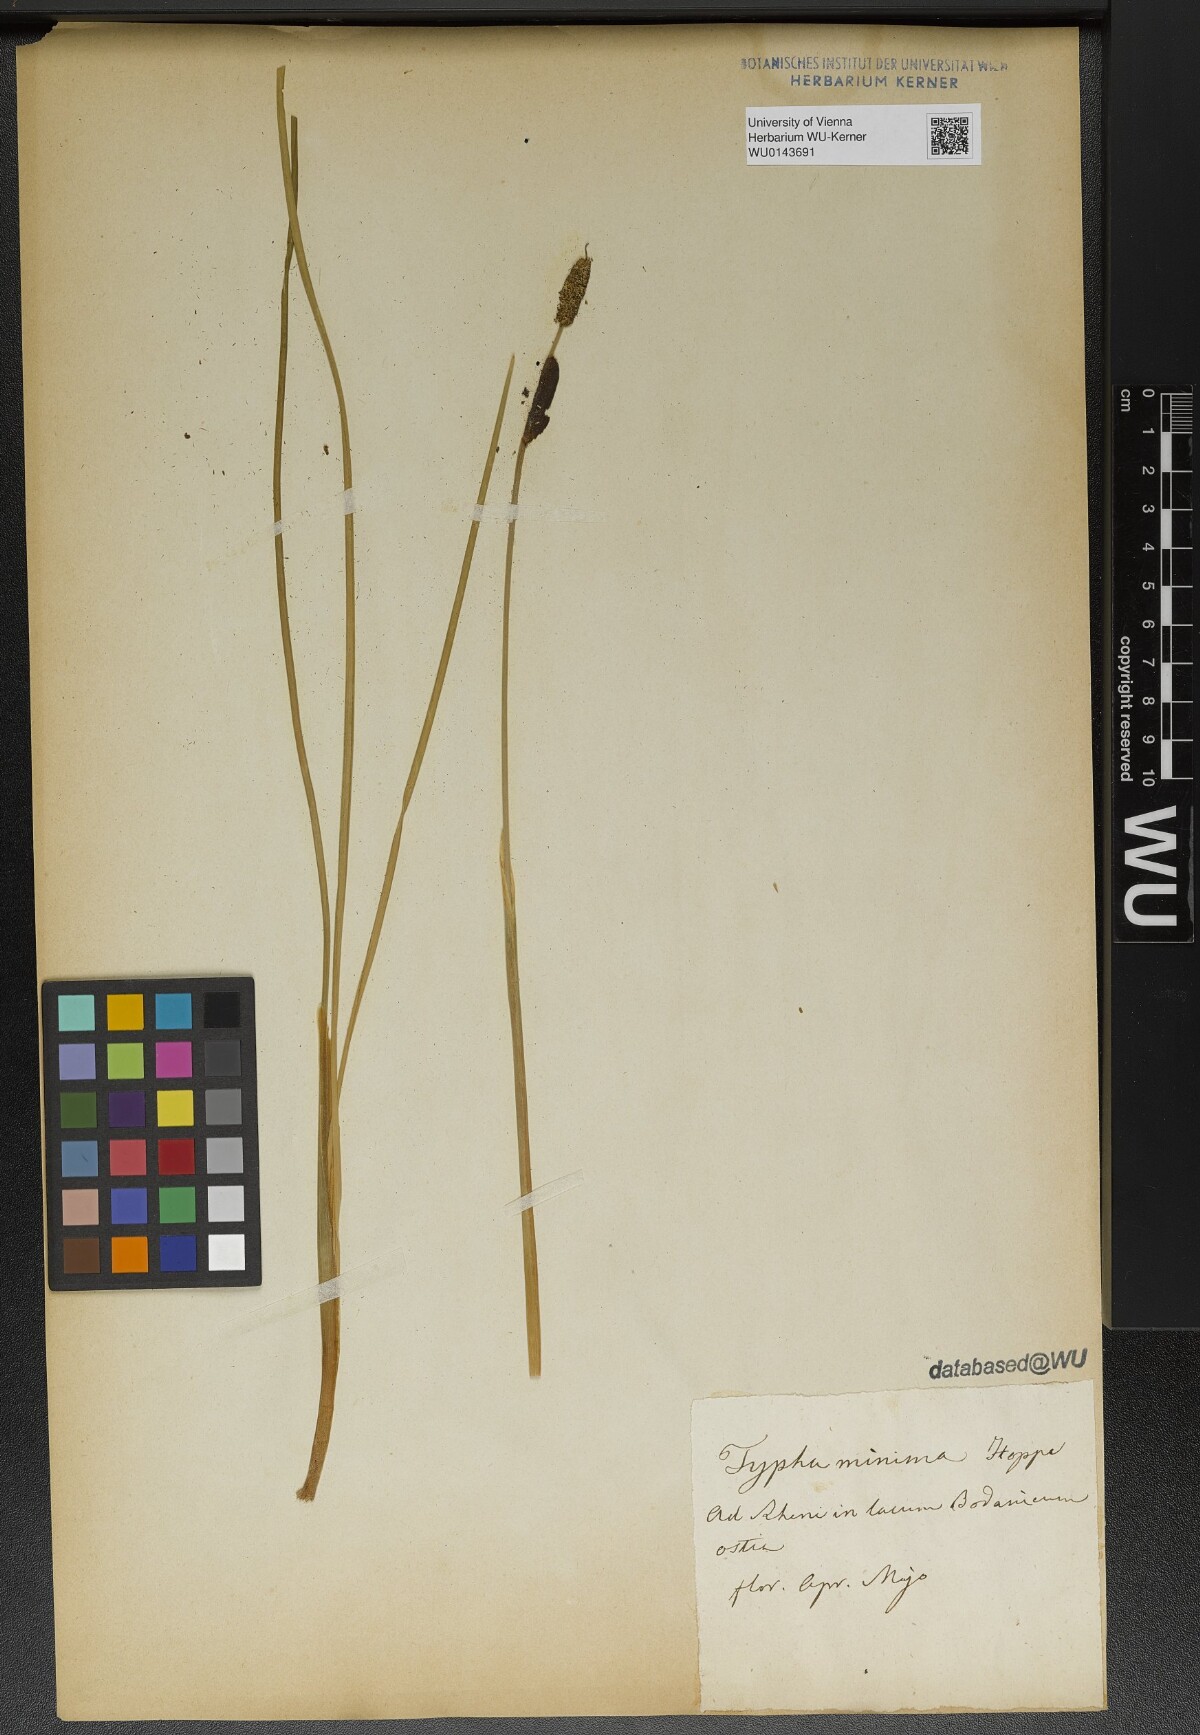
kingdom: Plantae
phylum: Tracheophyta
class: Liliopsida
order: Poales
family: Typhaceae
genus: Typha
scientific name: Typha minima
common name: Dwarf bulrush
